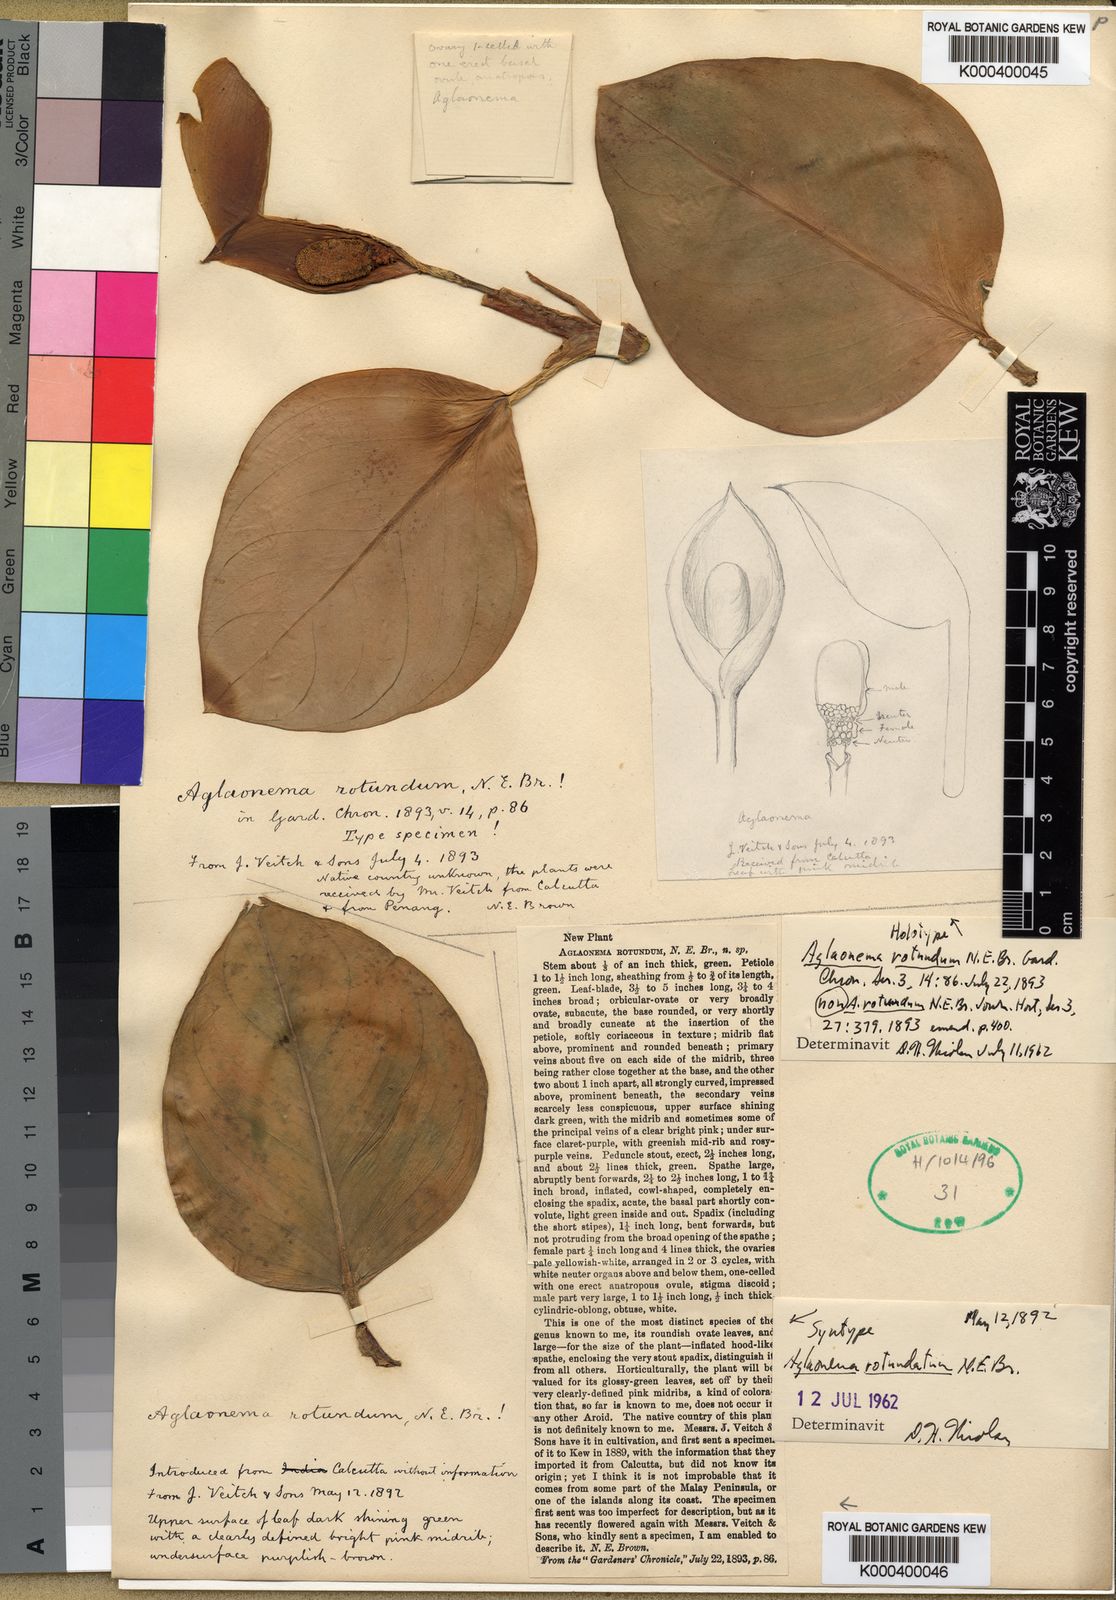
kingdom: Plantae
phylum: Tracheophyta
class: Liliopsida
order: Alismatales
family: Araceae
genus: Aglaonema
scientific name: Aglaonema rotundum
